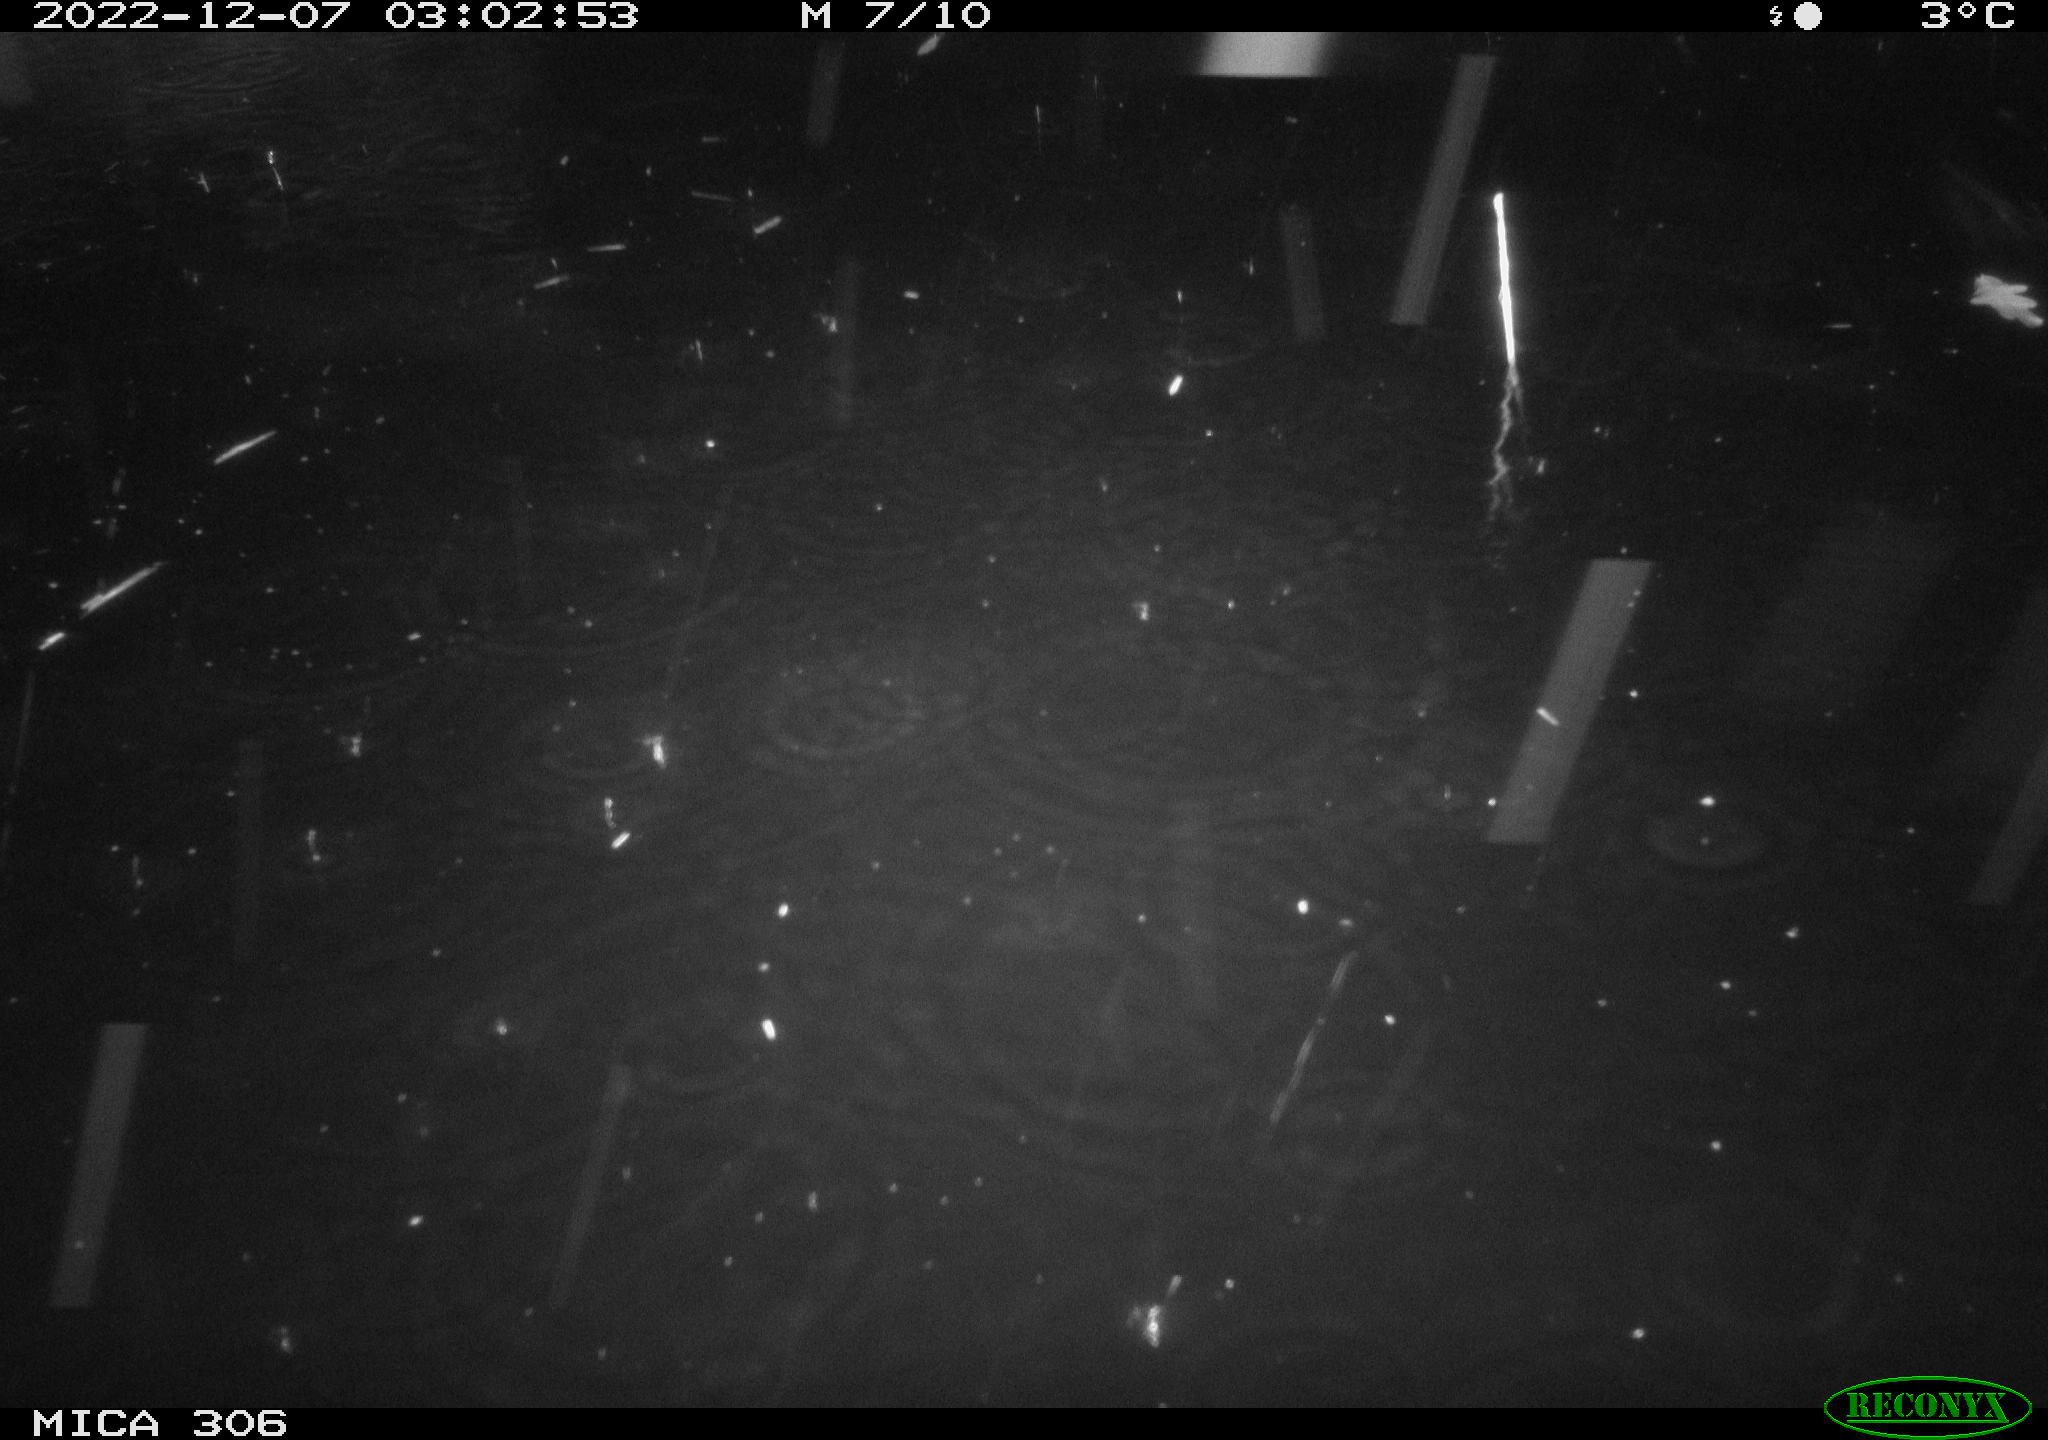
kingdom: Animalia
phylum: Chordata
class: Mammalia
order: Rodentia
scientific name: Rodentia
